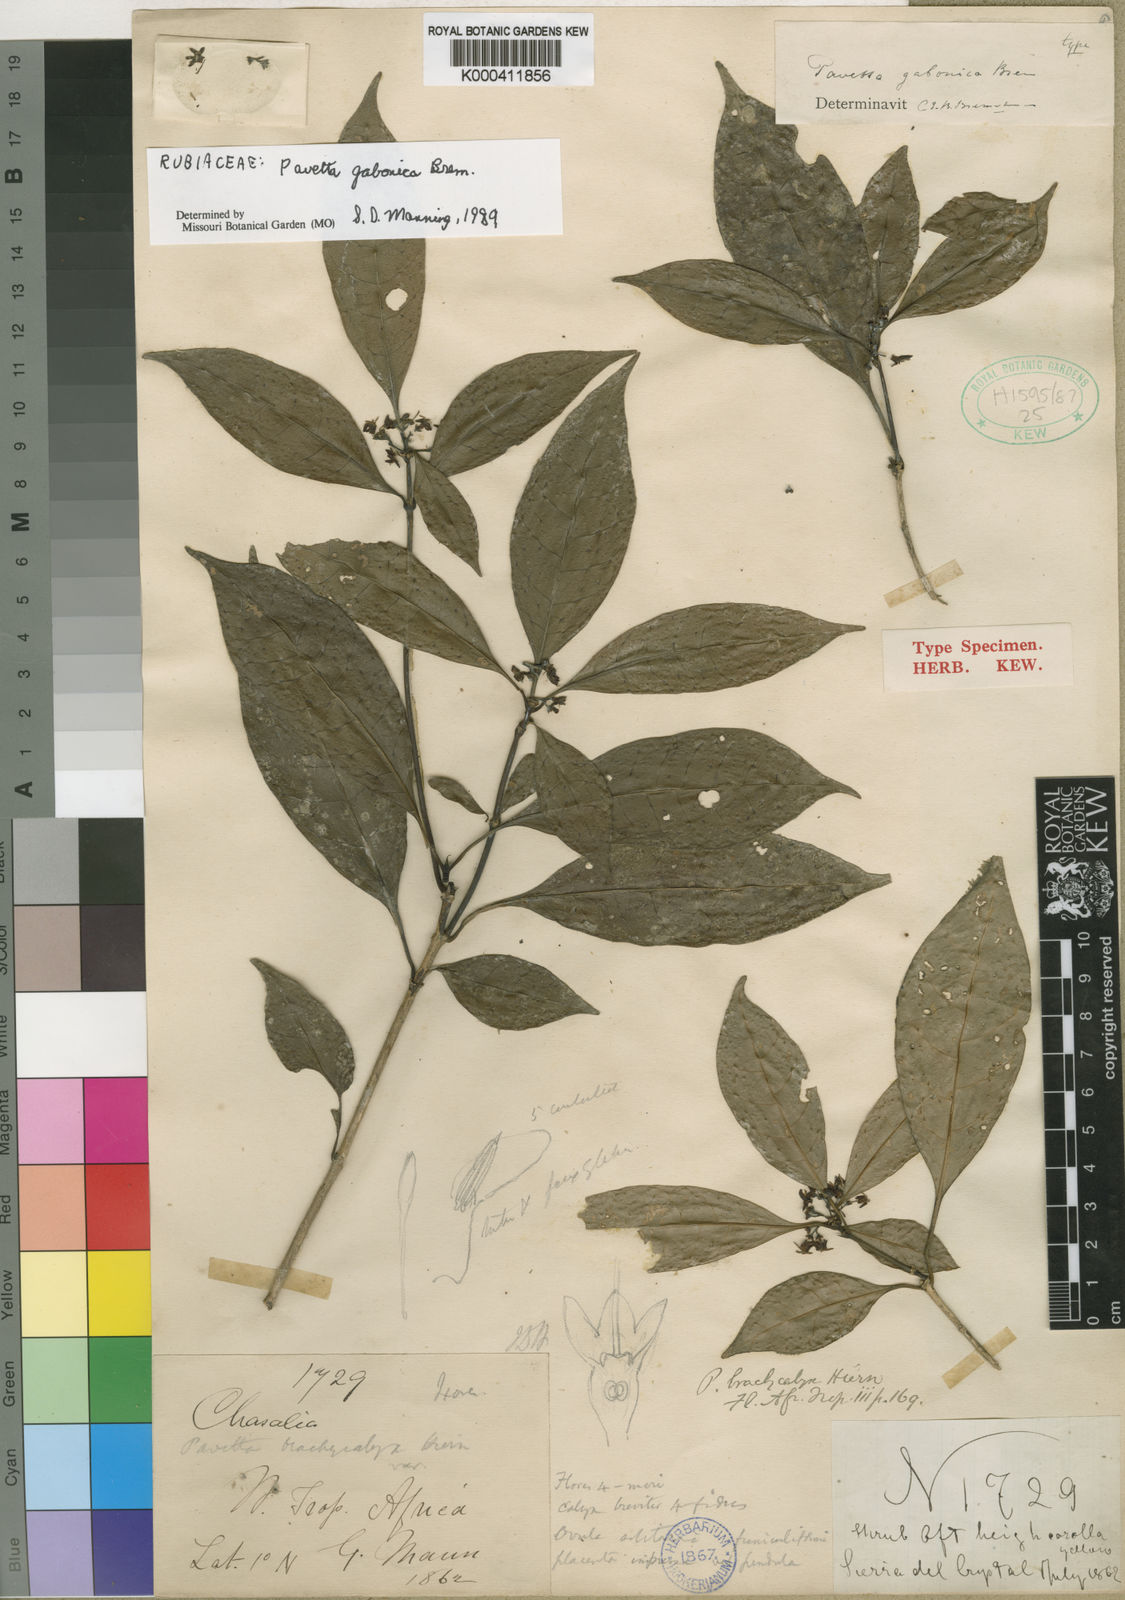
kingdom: Plantae
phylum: Tracheophyta
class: Magnoliopsida
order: Gentianales
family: Rubiaceae
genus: Pavetta
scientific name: Pavetta gabonica
